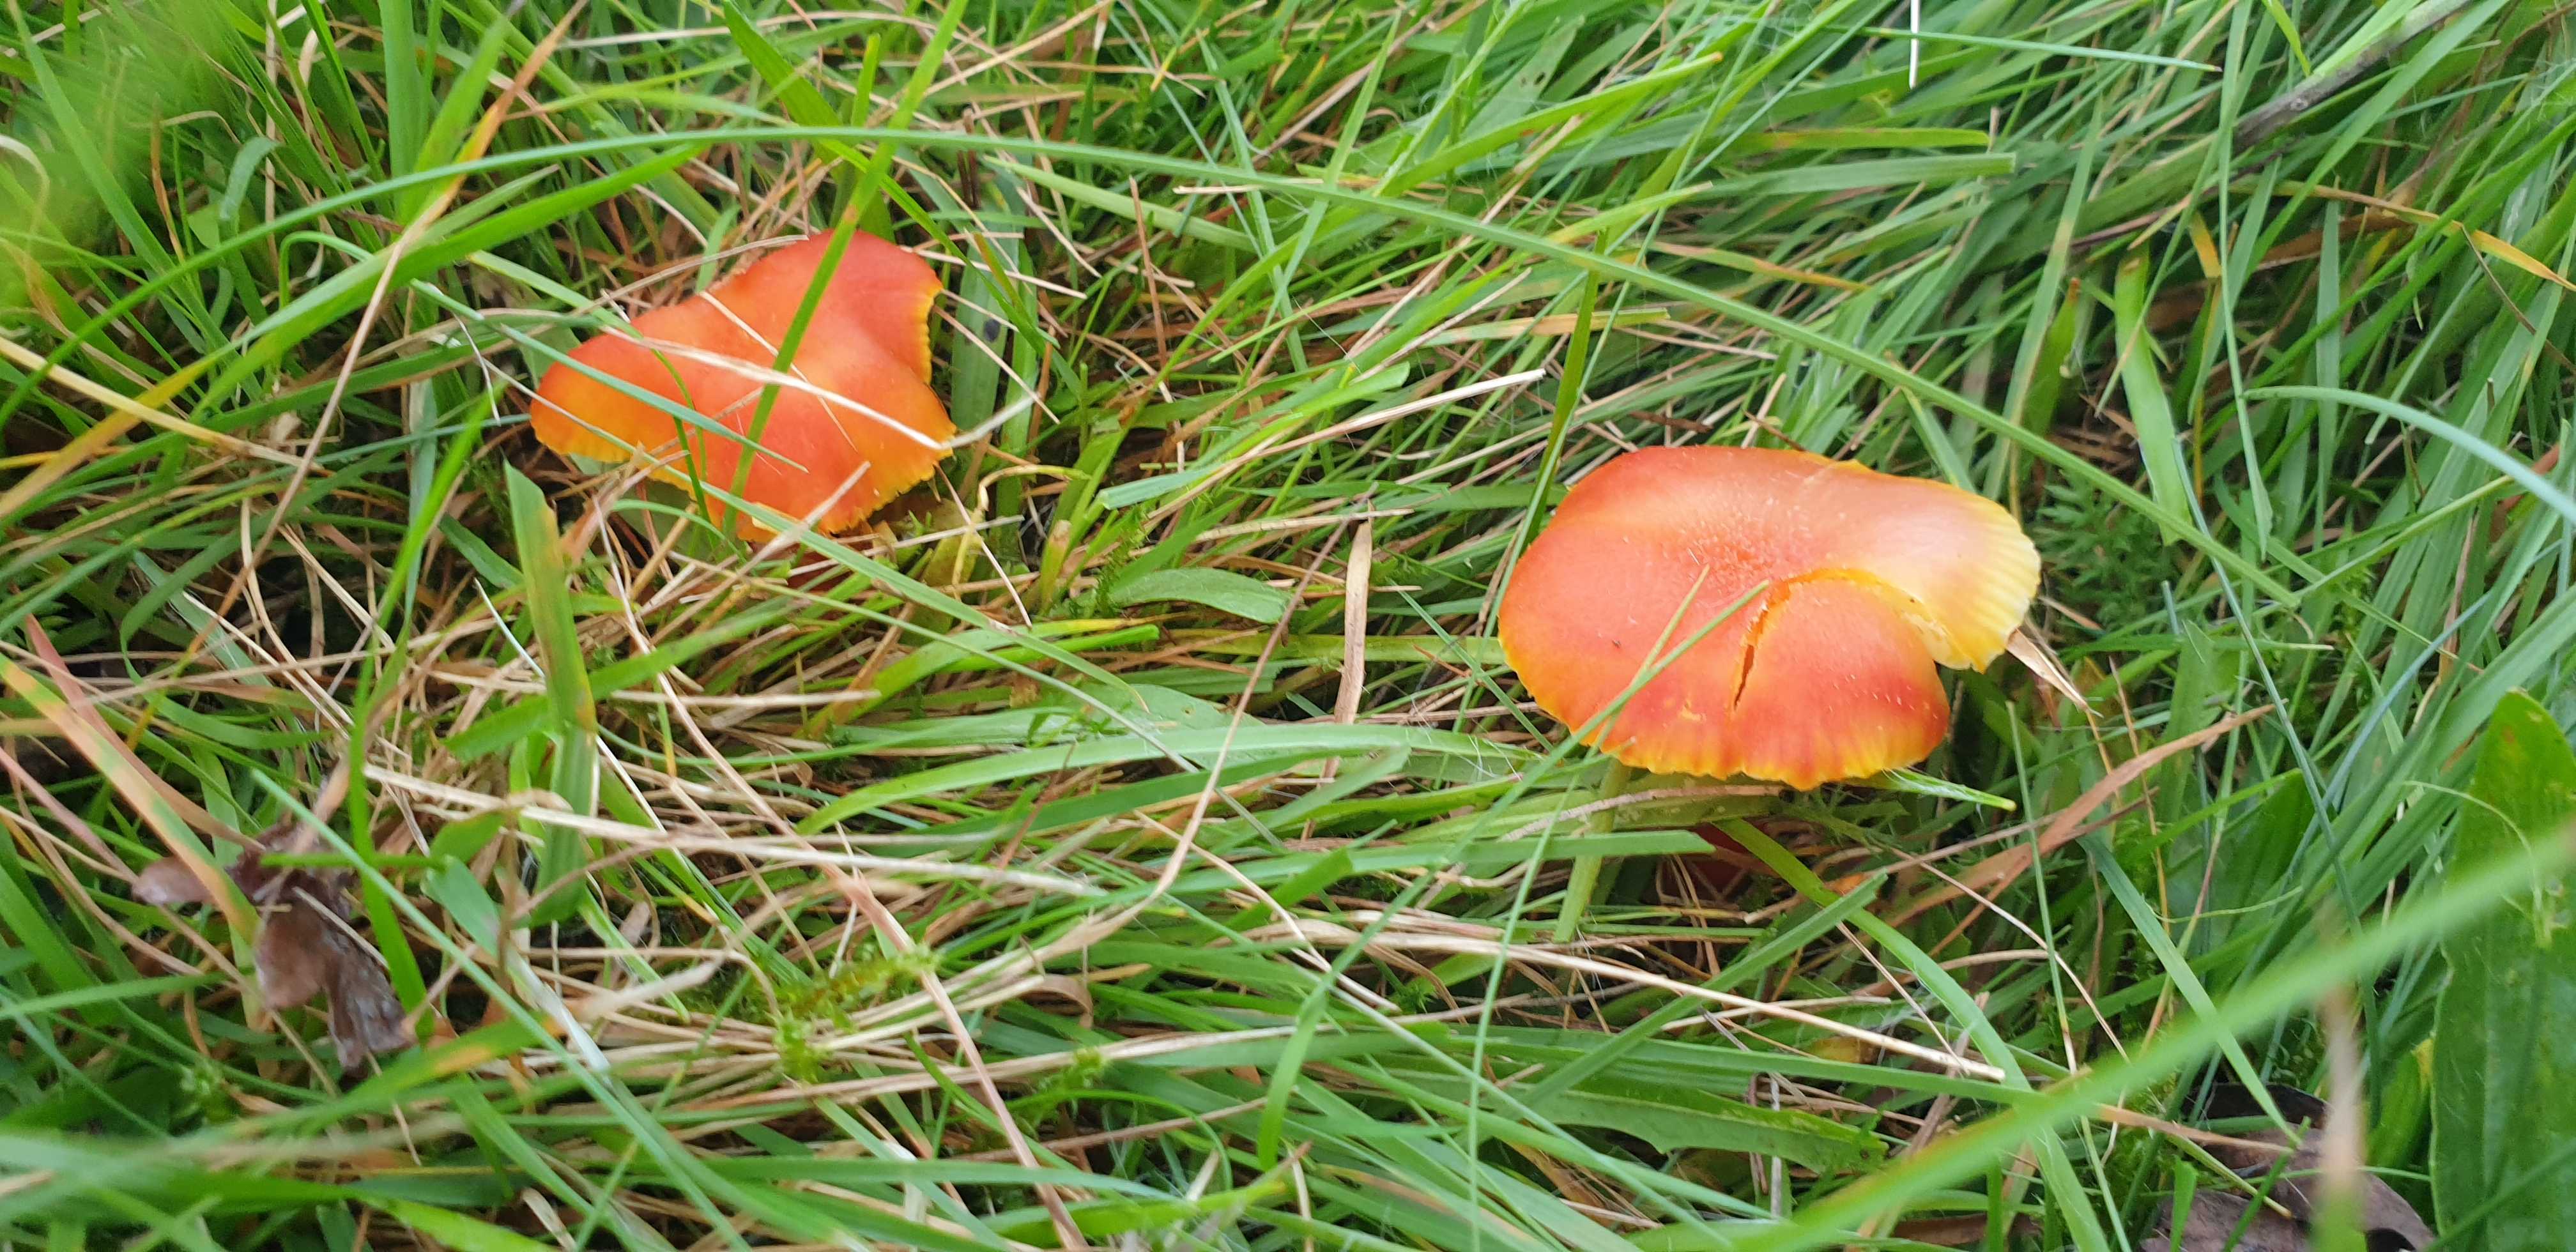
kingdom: Fungi
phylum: Basidiomycota
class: Agaricomycetes
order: Agaricales
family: Hygrophoraceae
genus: Hygrocybe
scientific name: Hygrocybe cantharellus
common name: kantarel-vokshat
